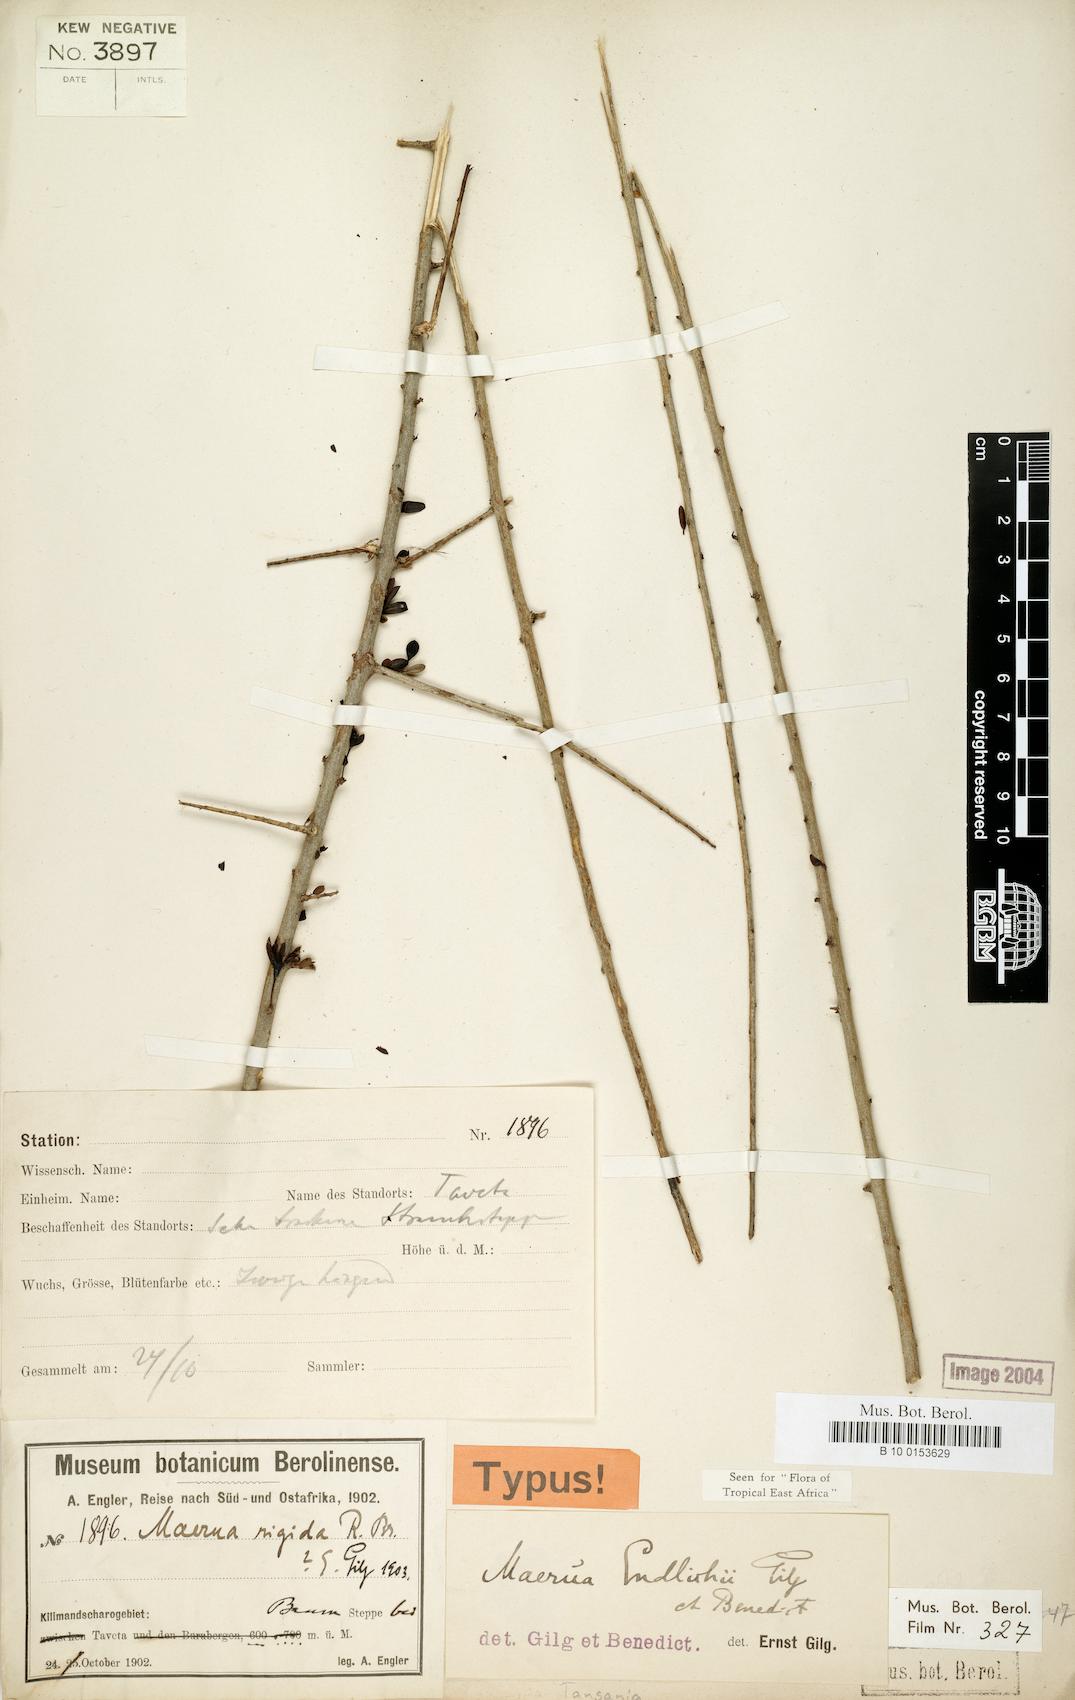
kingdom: Plantae
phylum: Tracheophyta
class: Magnoliopsida
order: Brassicales
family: Capparaceae
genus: Maerua
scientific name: Maerua endlichii
